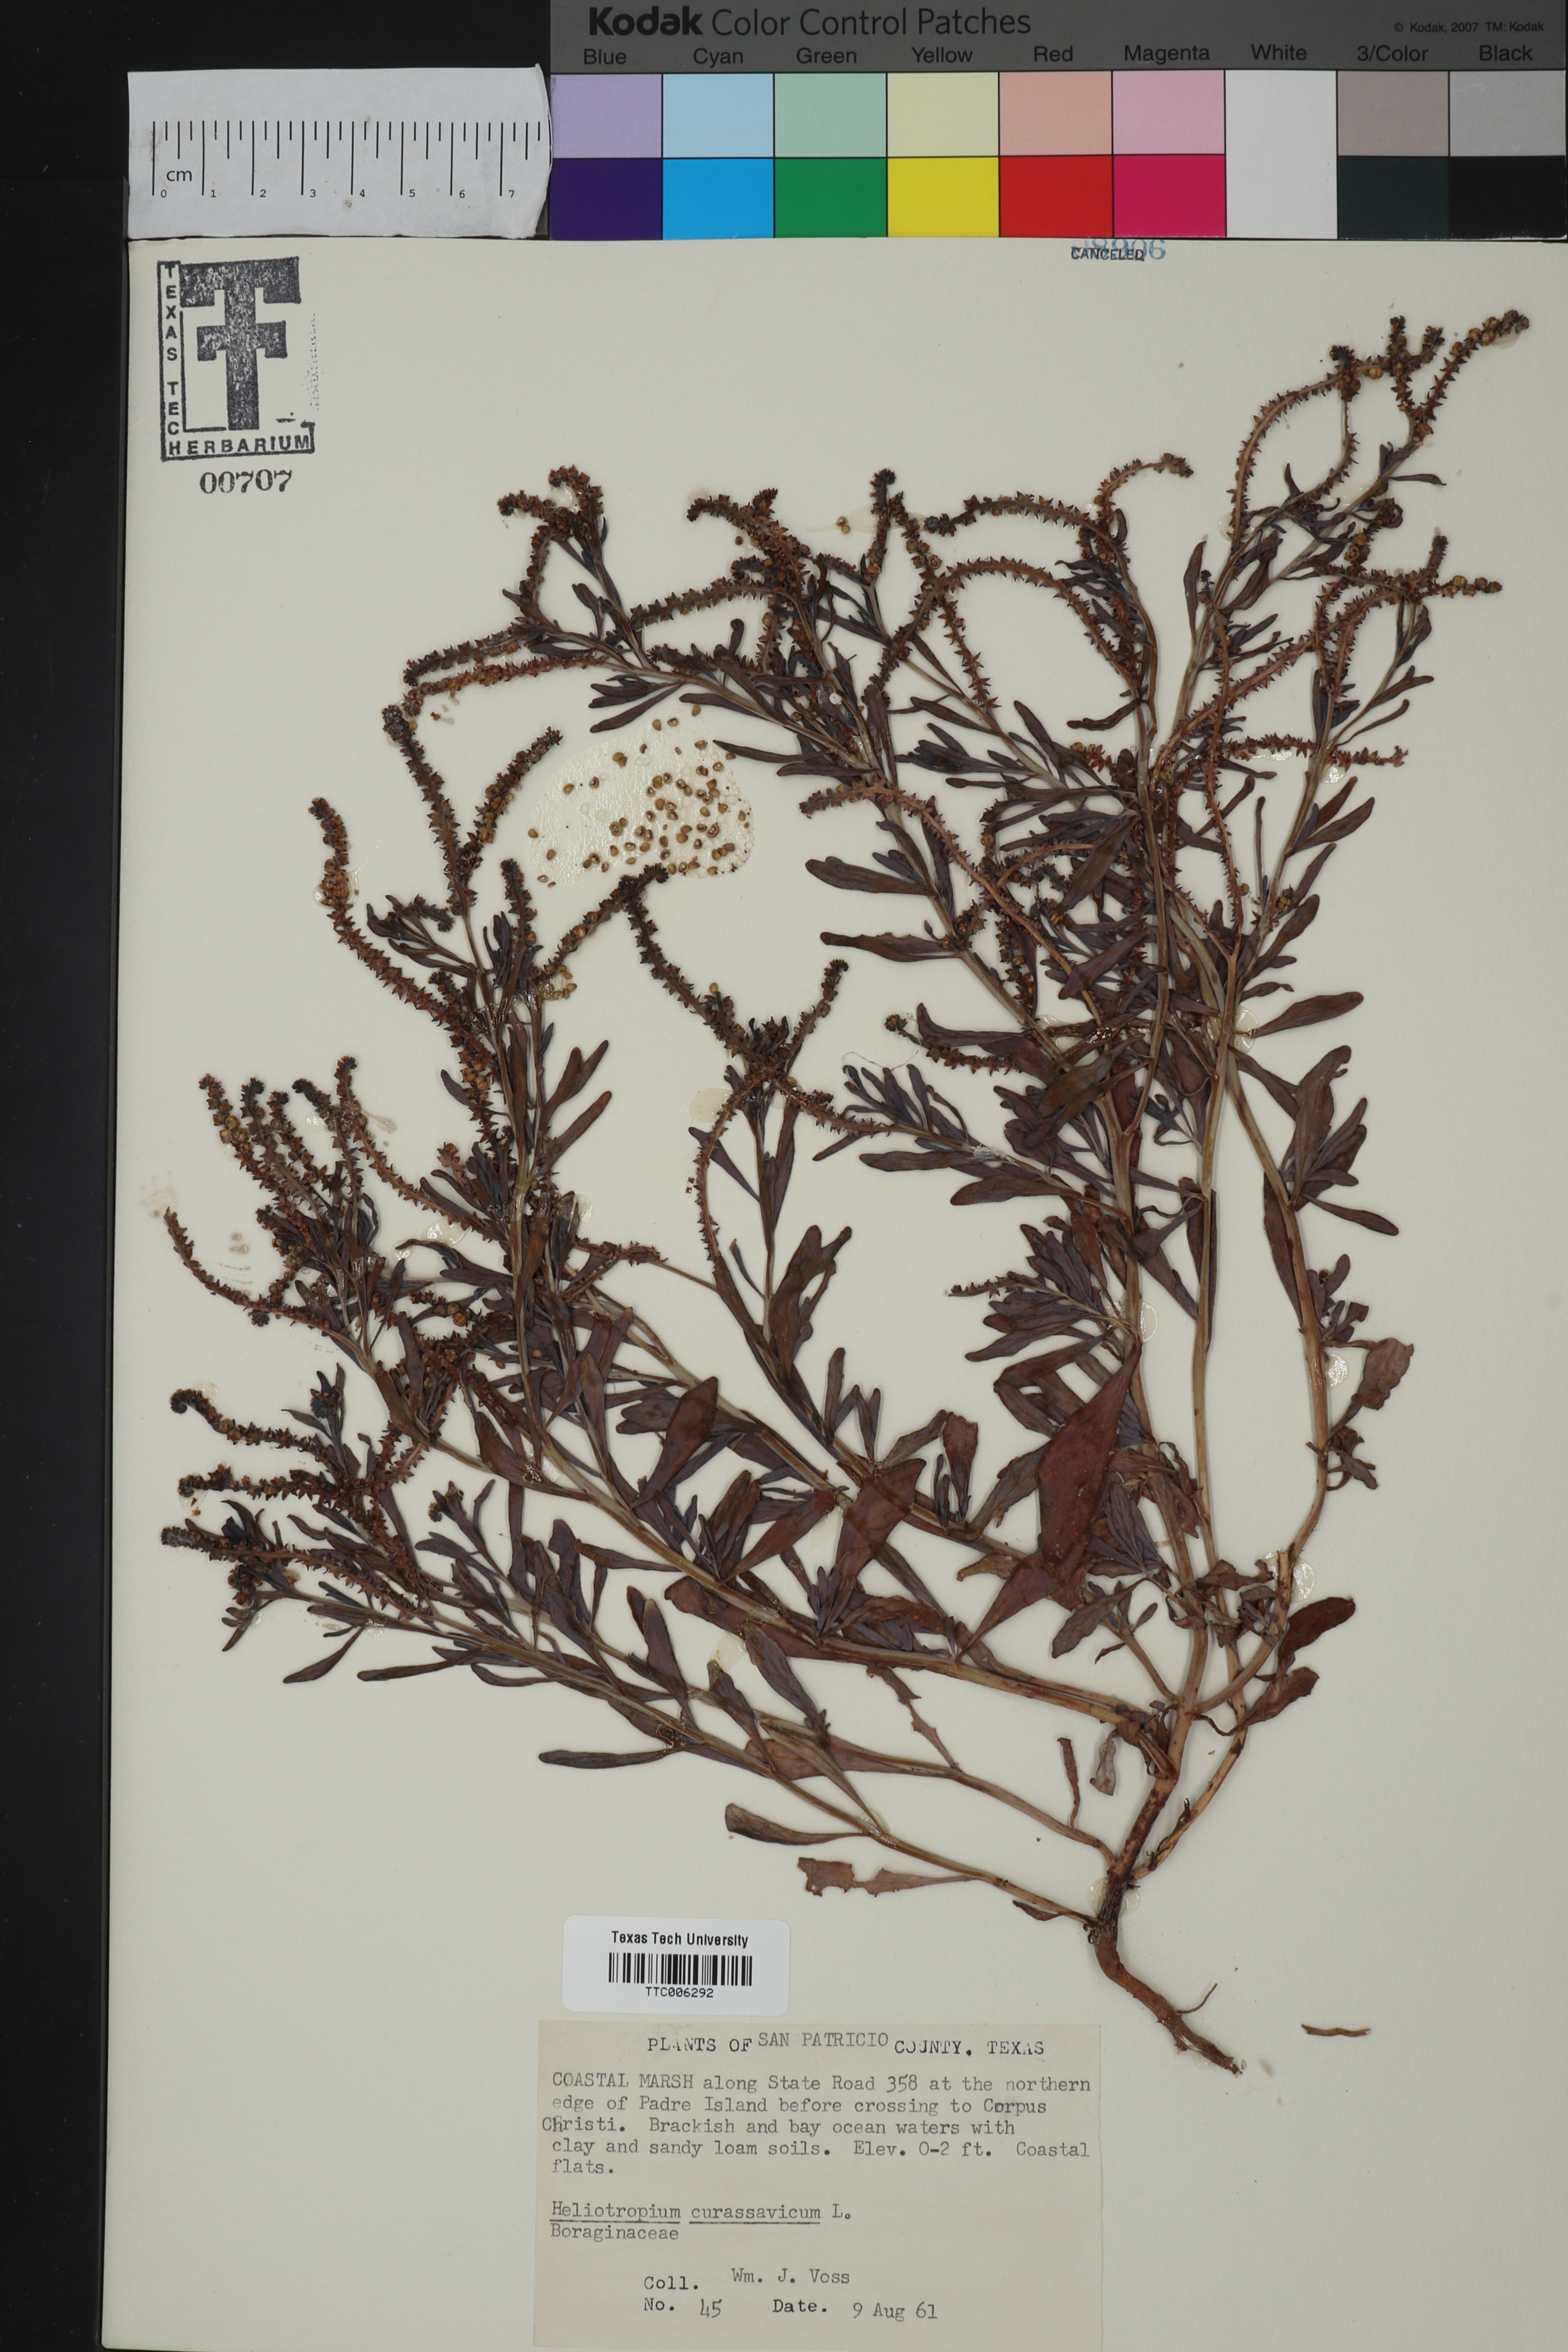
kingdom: Plantae
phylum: Tracheophyta
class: Magnoliopsida
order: Boraginales
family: Heliotropiaceae
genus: Heliotropium
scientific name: Heliotropium curassavicum
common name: Seaside heliotrope
